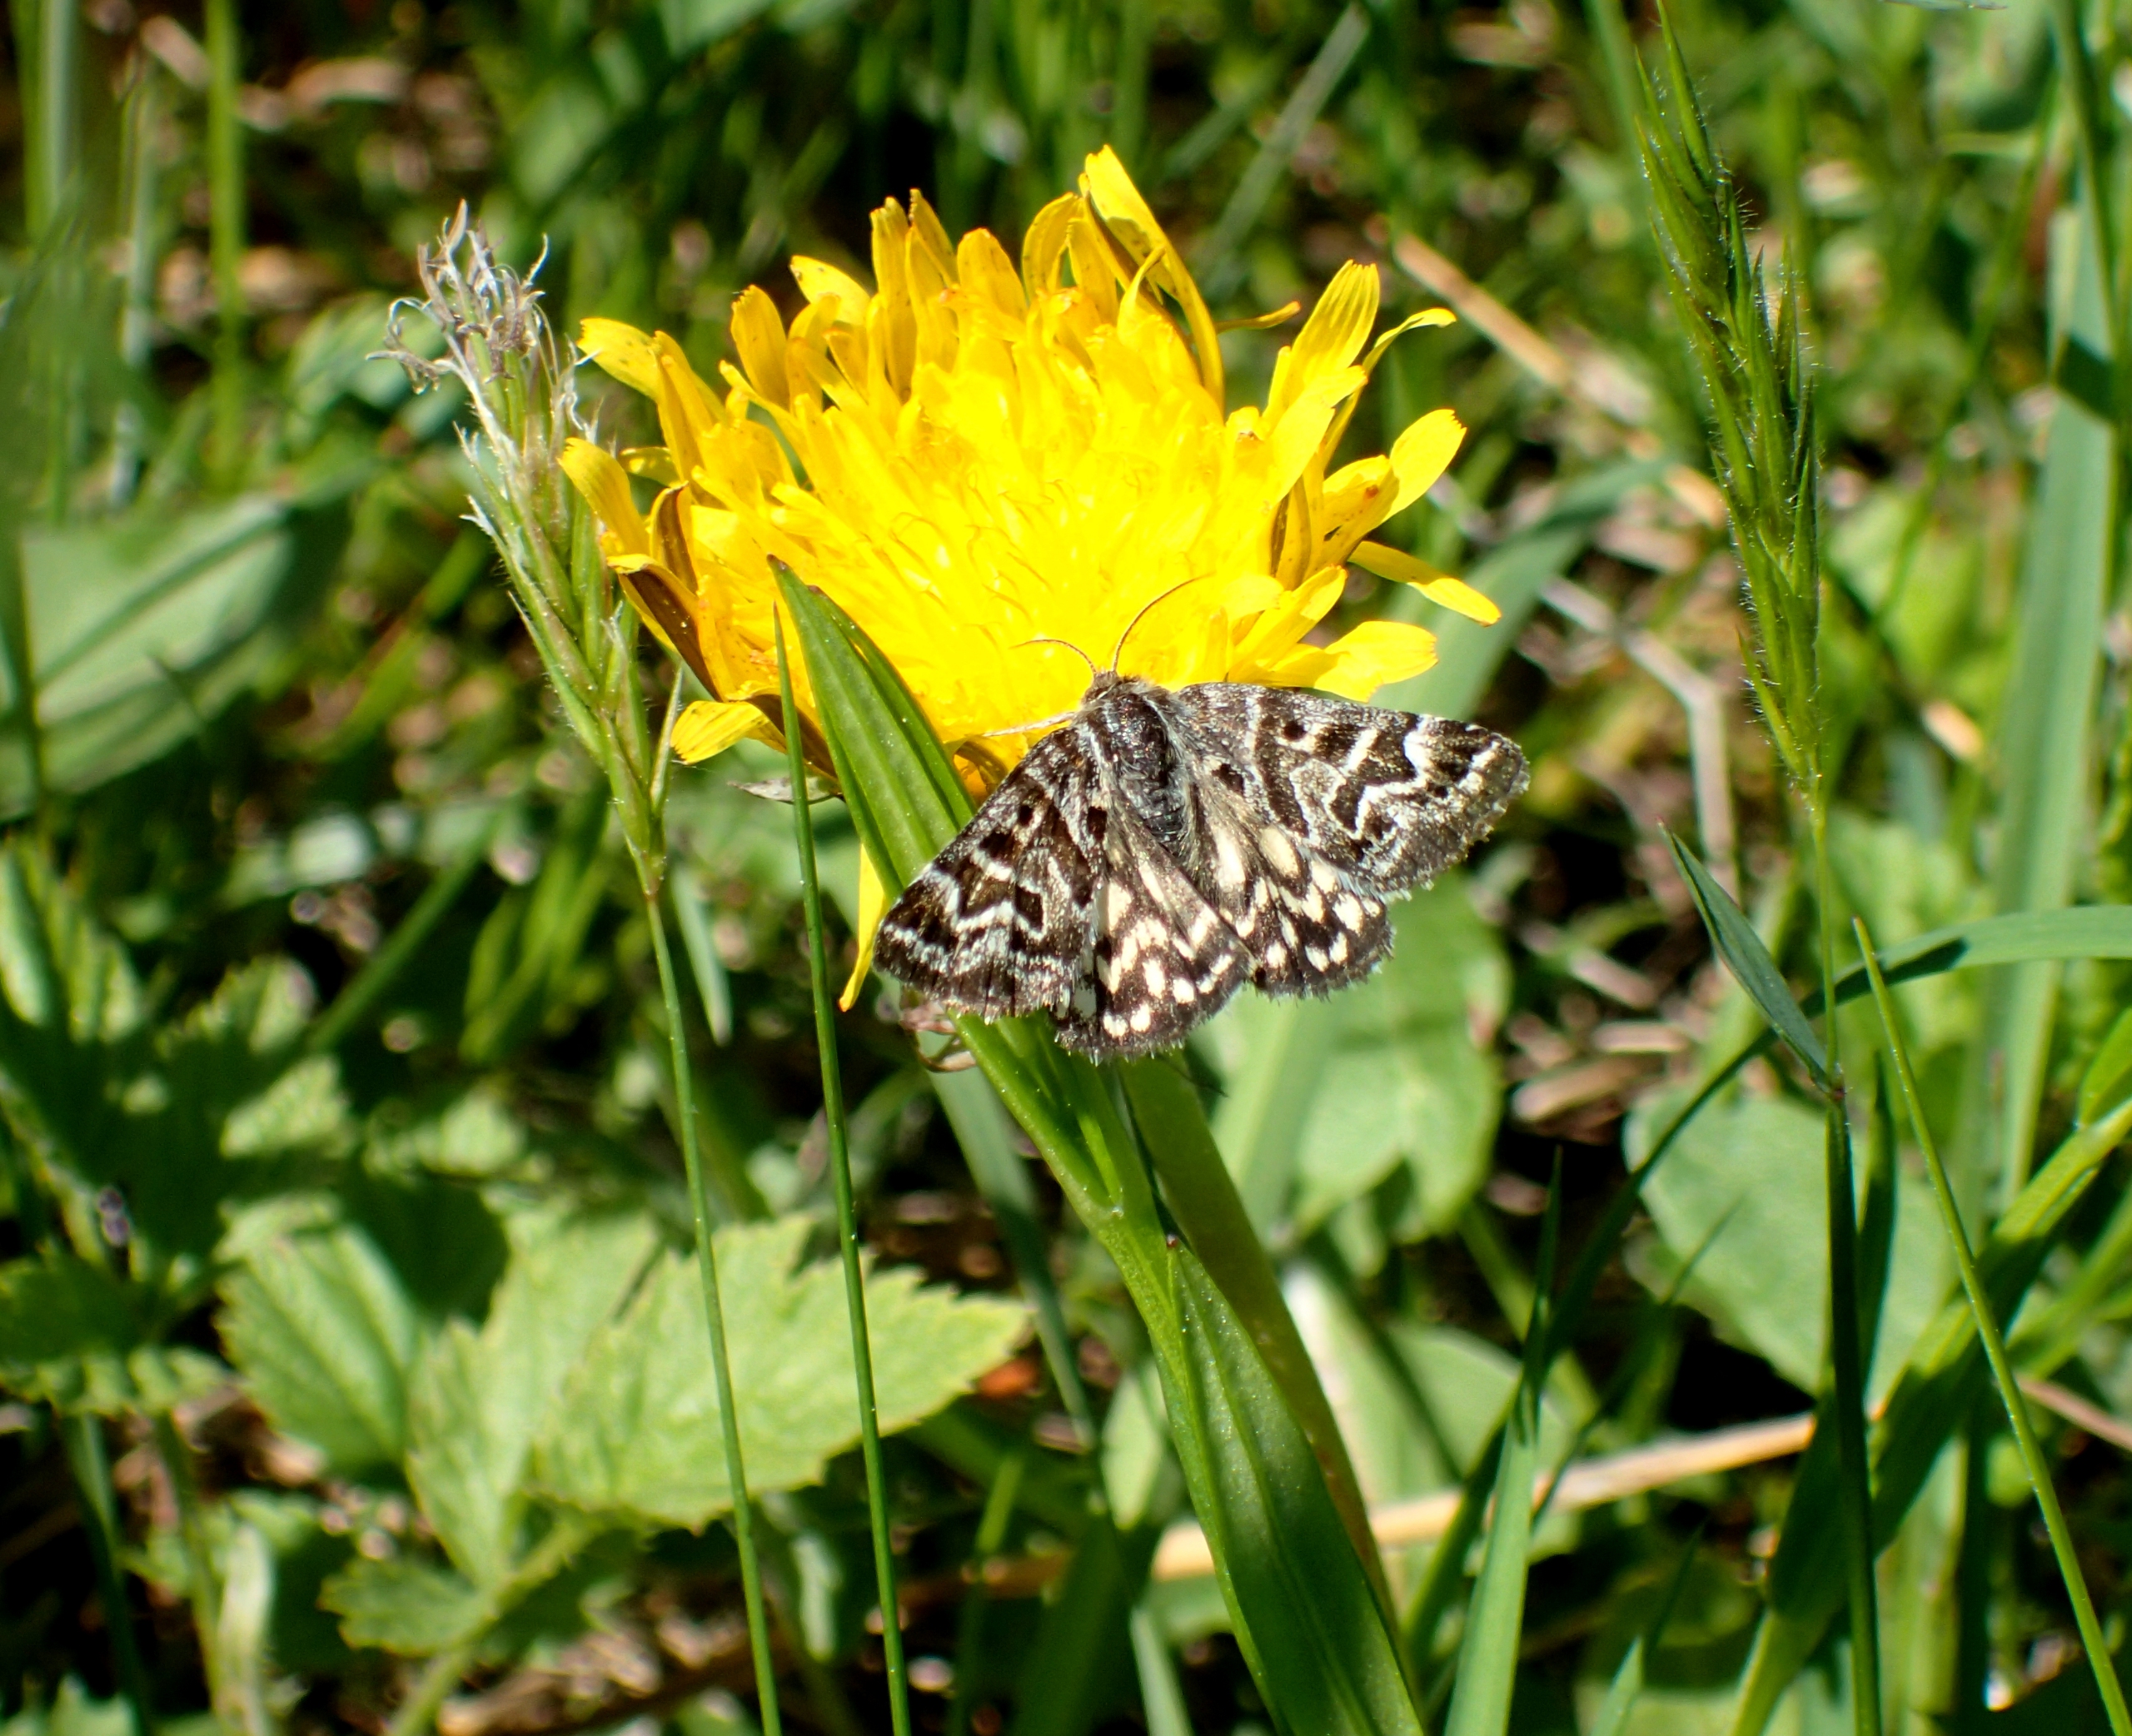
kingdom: Animalia
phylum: Arthropoda
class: Insecta
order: Lepidoptera
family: Erebidae
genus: Callistege
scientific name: Callistege mi
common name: Marmoreret kløverugle
